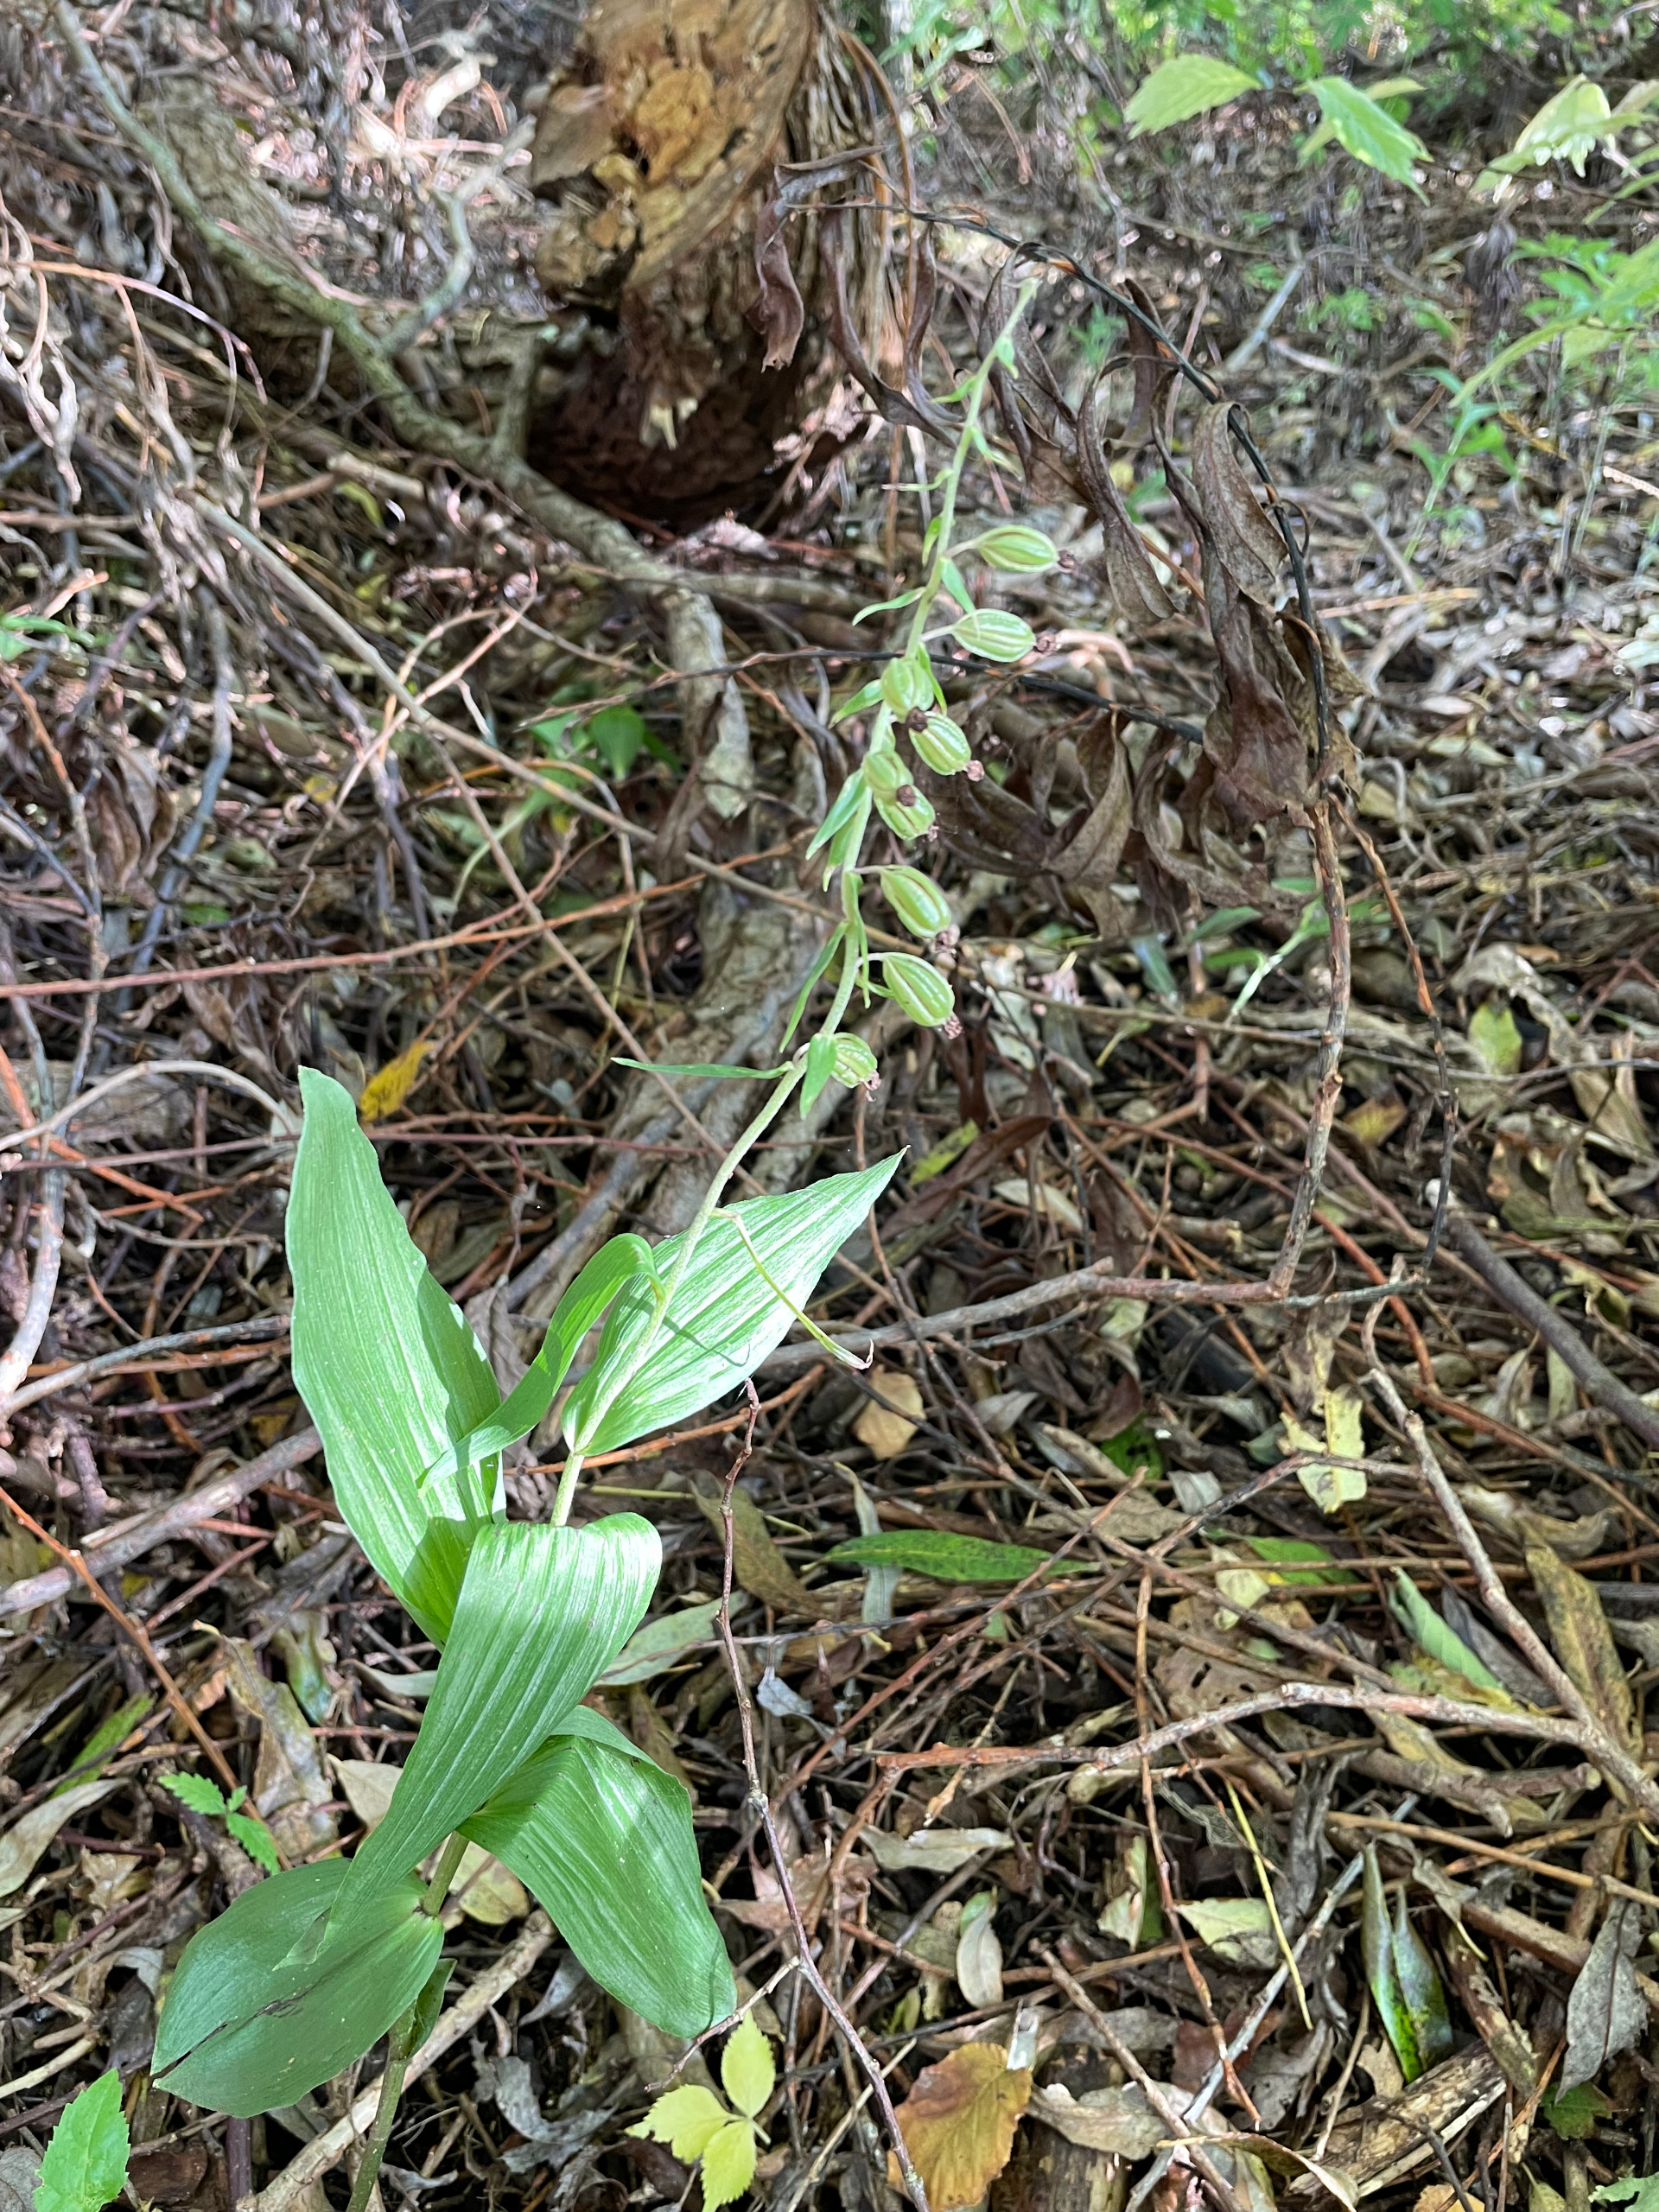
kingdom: Plantae
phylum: Tracheophyta
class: Liliopsida
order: Asparagales
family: Orchidaceae
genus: Epipactis
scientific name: Epipactis helleborine
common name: Skov-hullæbe
